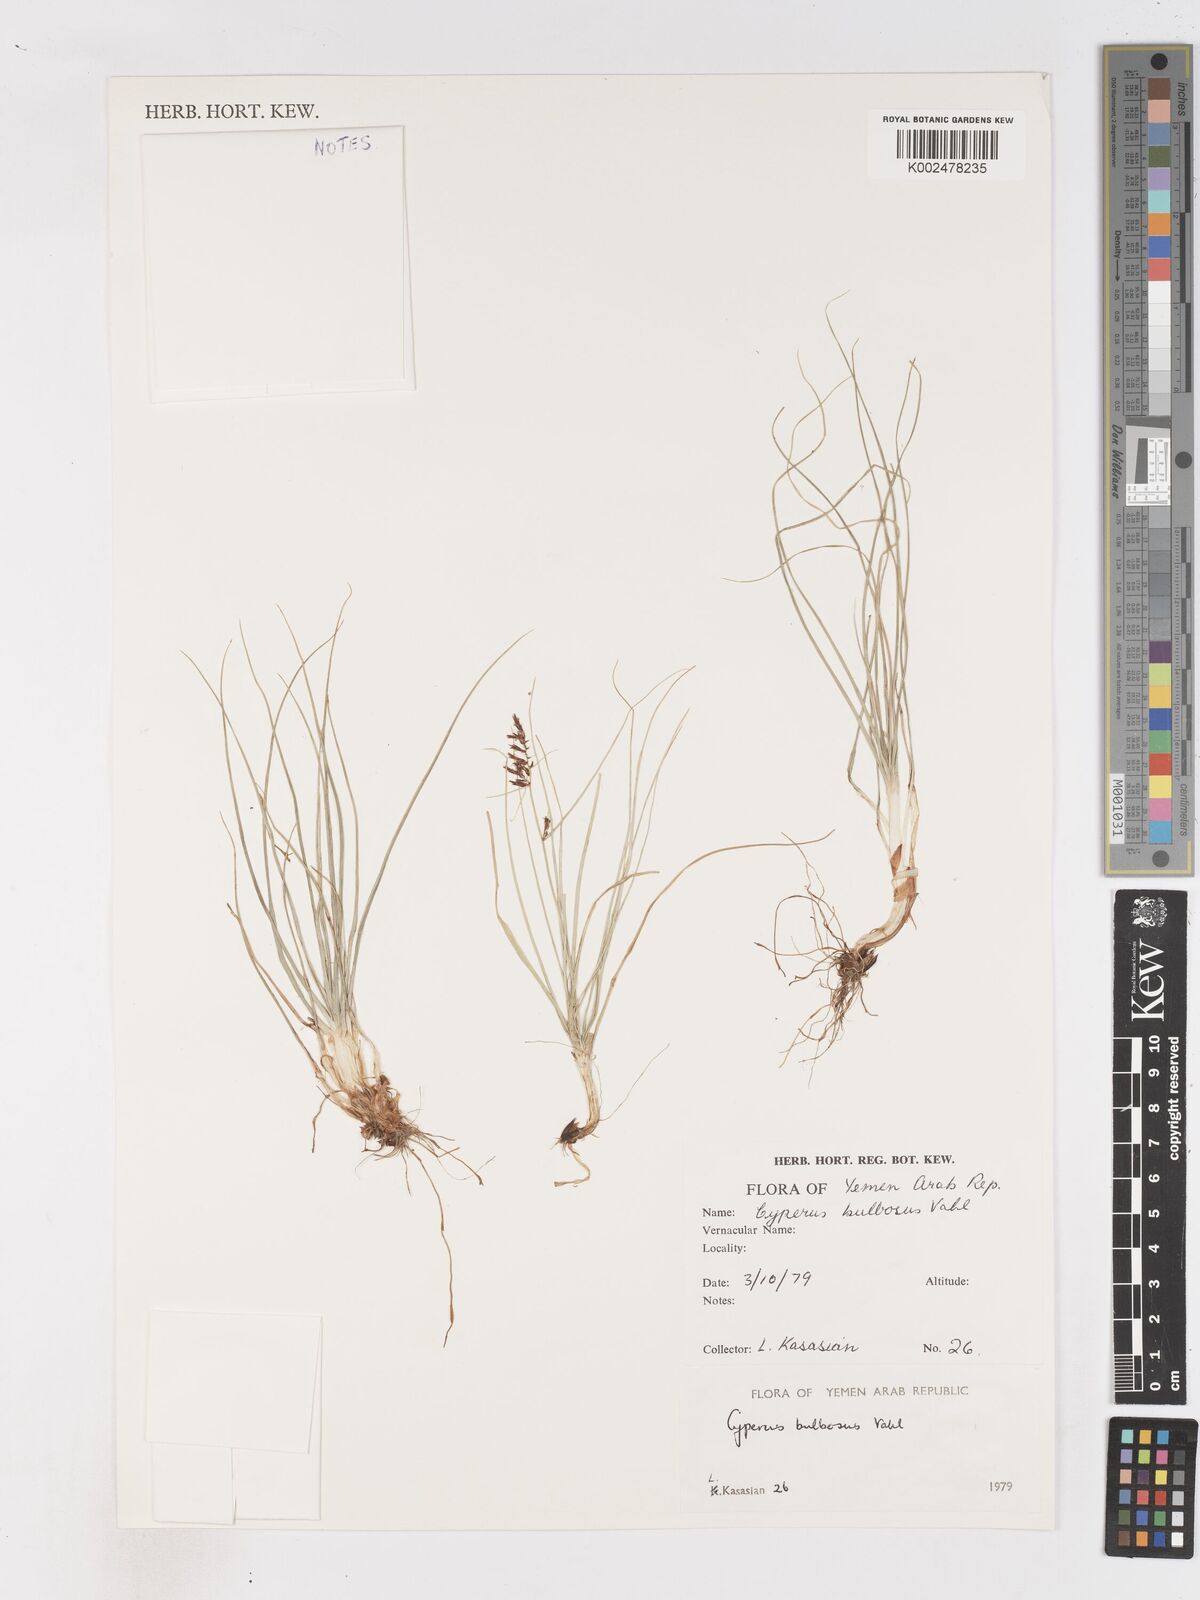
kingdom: Plantae
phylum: Tracheophyta
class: Liliopsida
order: Poales
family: Cyperaceae
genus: Cyperus
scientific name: Cyperus bulbosus
